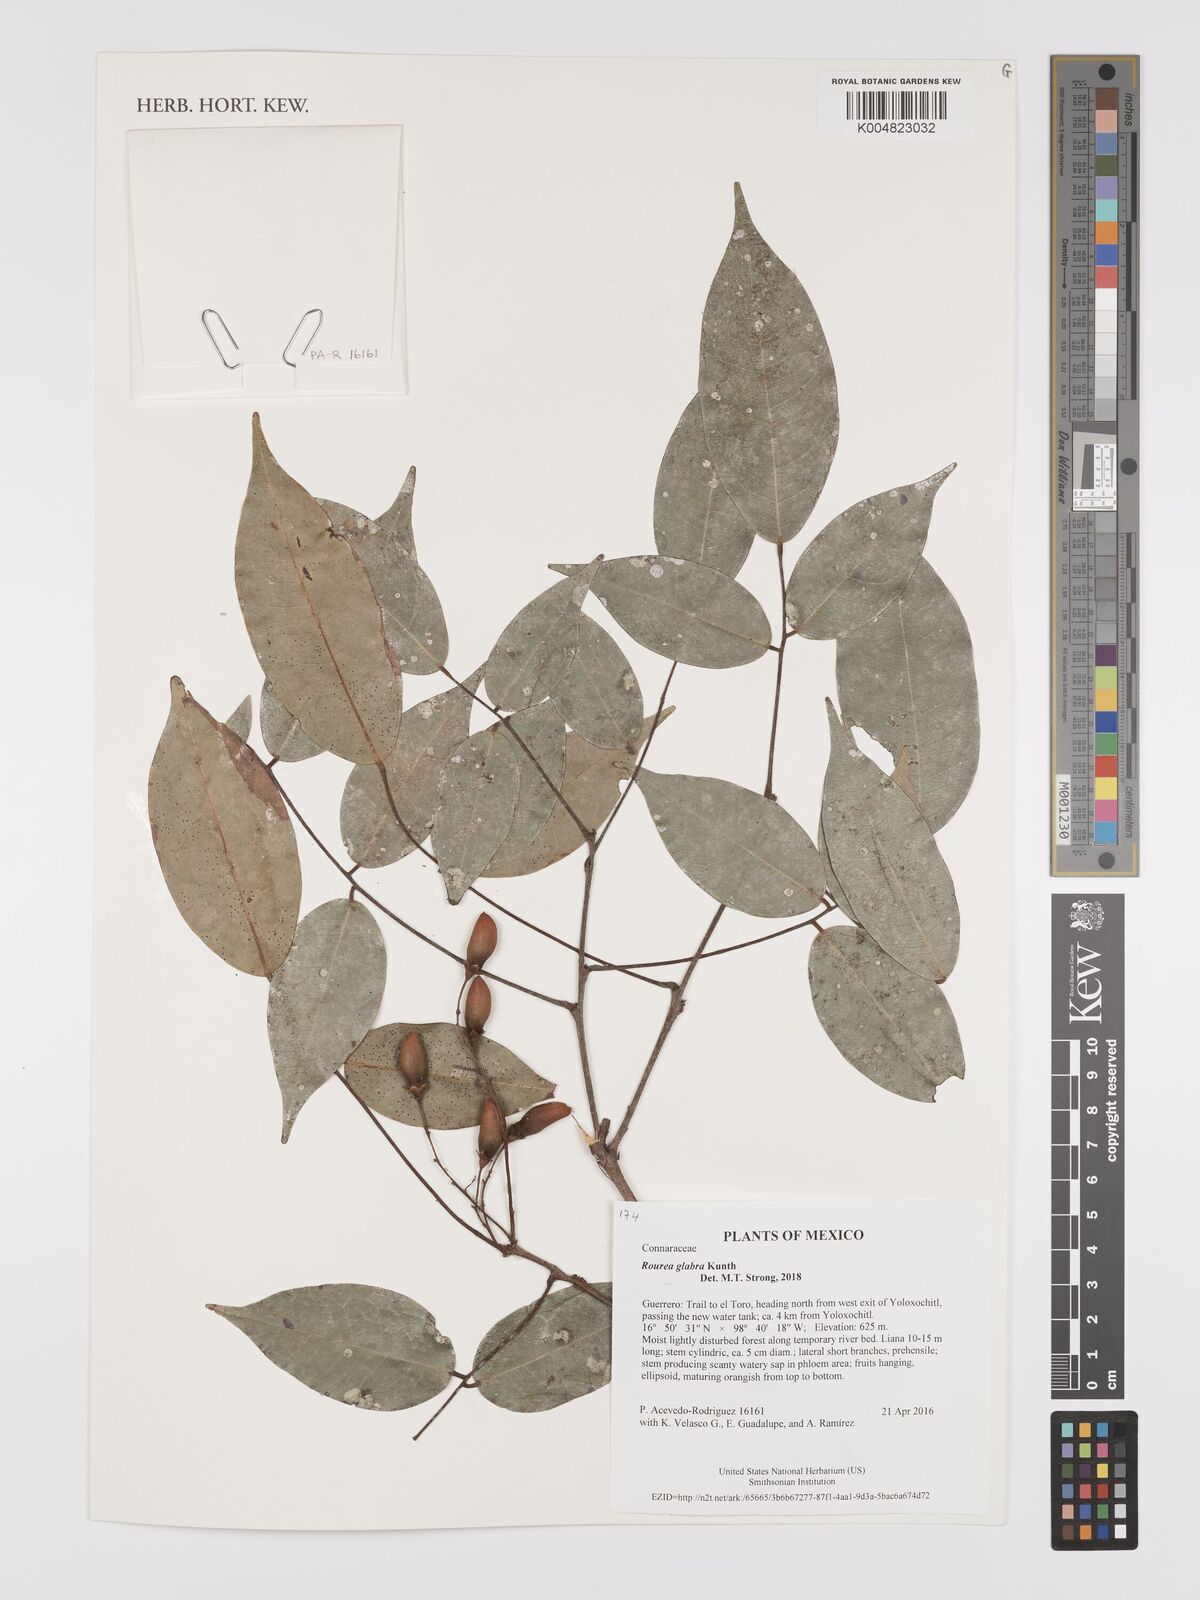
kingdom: Plantae
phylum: Tracheophyta
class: Magnoliopsida
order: Oxalidales
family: Connaraceae
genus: Rourea
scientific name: Rourea glabra
